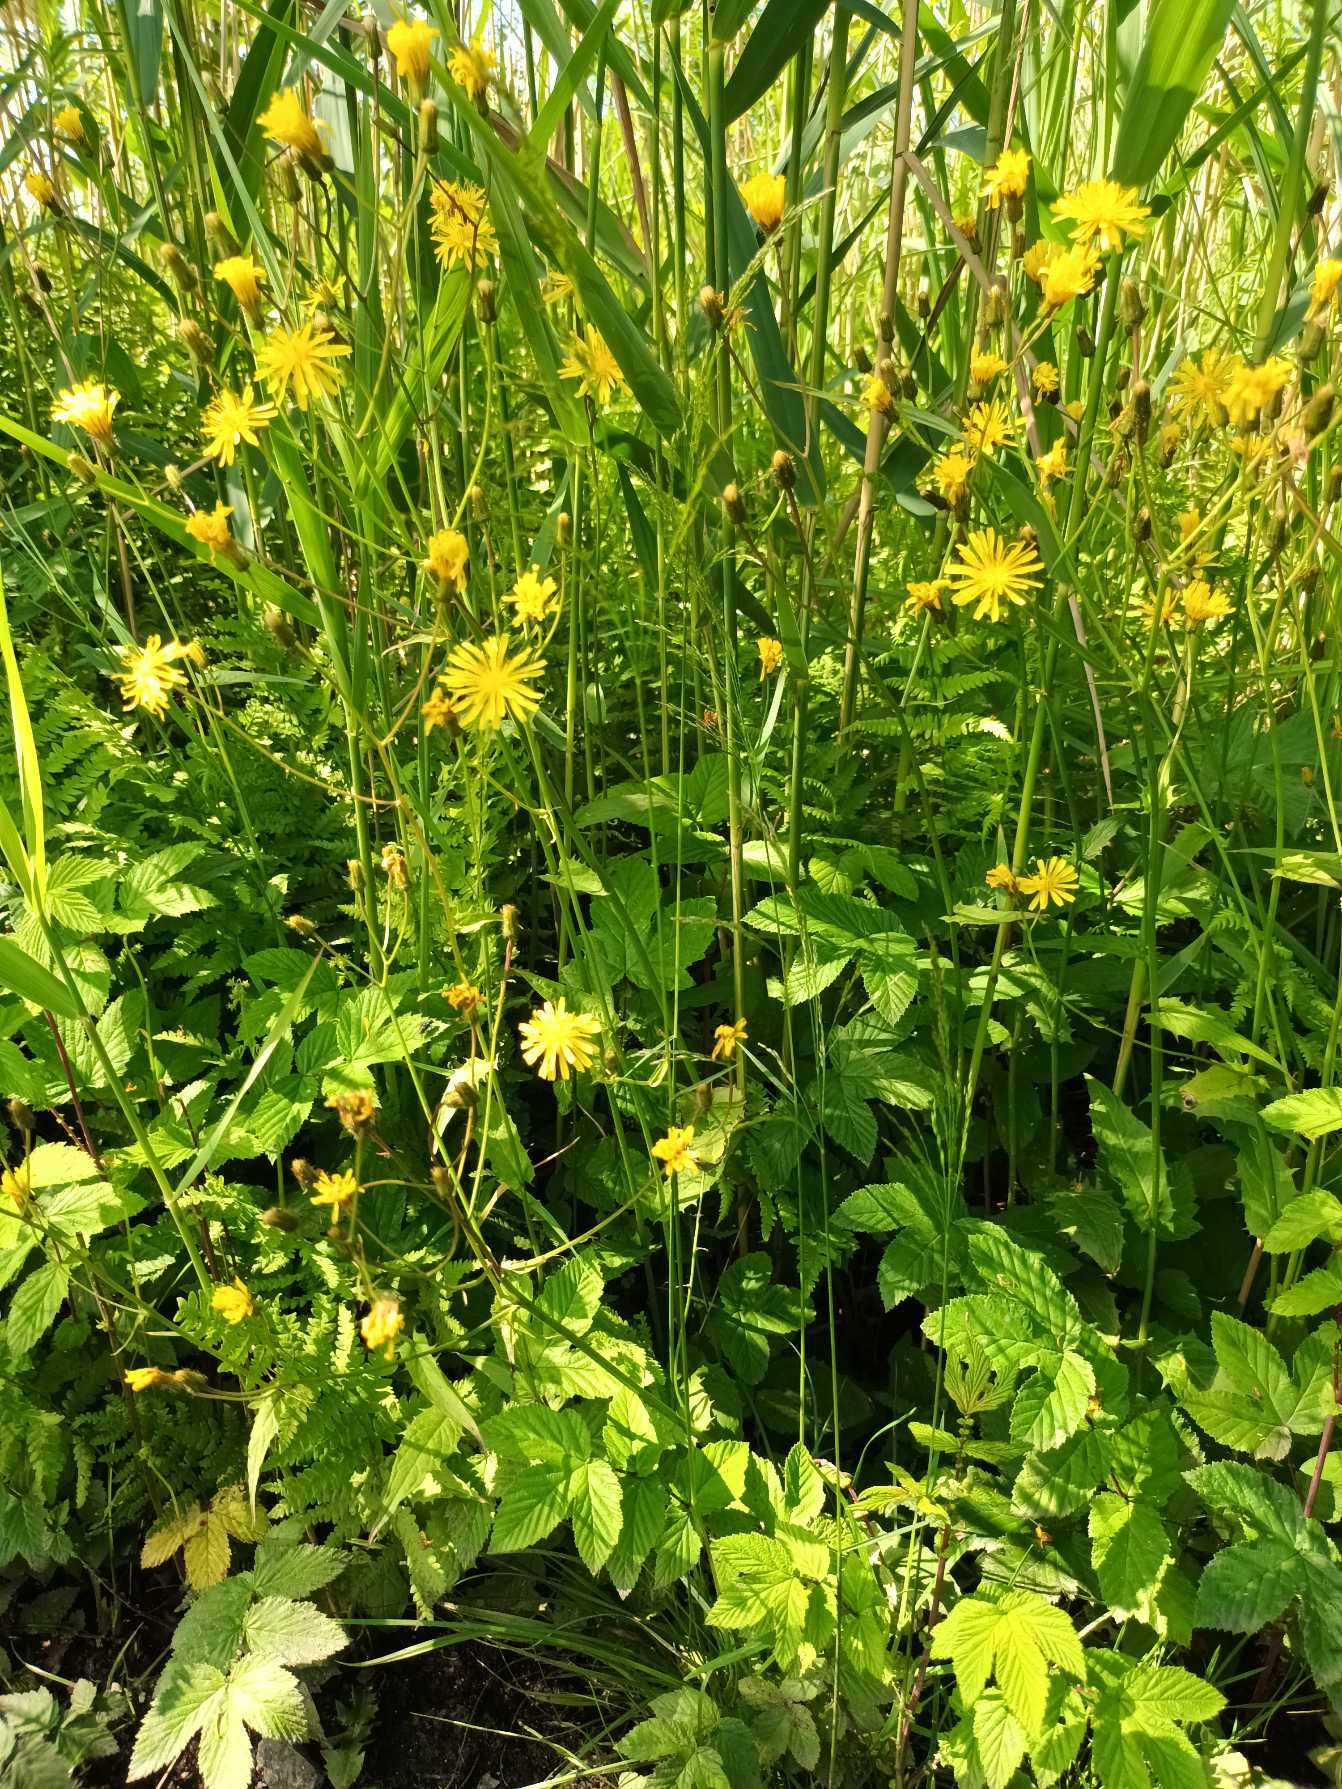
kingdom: Plantae
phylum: Tracheophyta
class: Magnoliopsida
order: Asterales
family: Asteraceae
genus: Crepis
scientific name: Crepis paludosa
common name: Kær-høgeskæg
